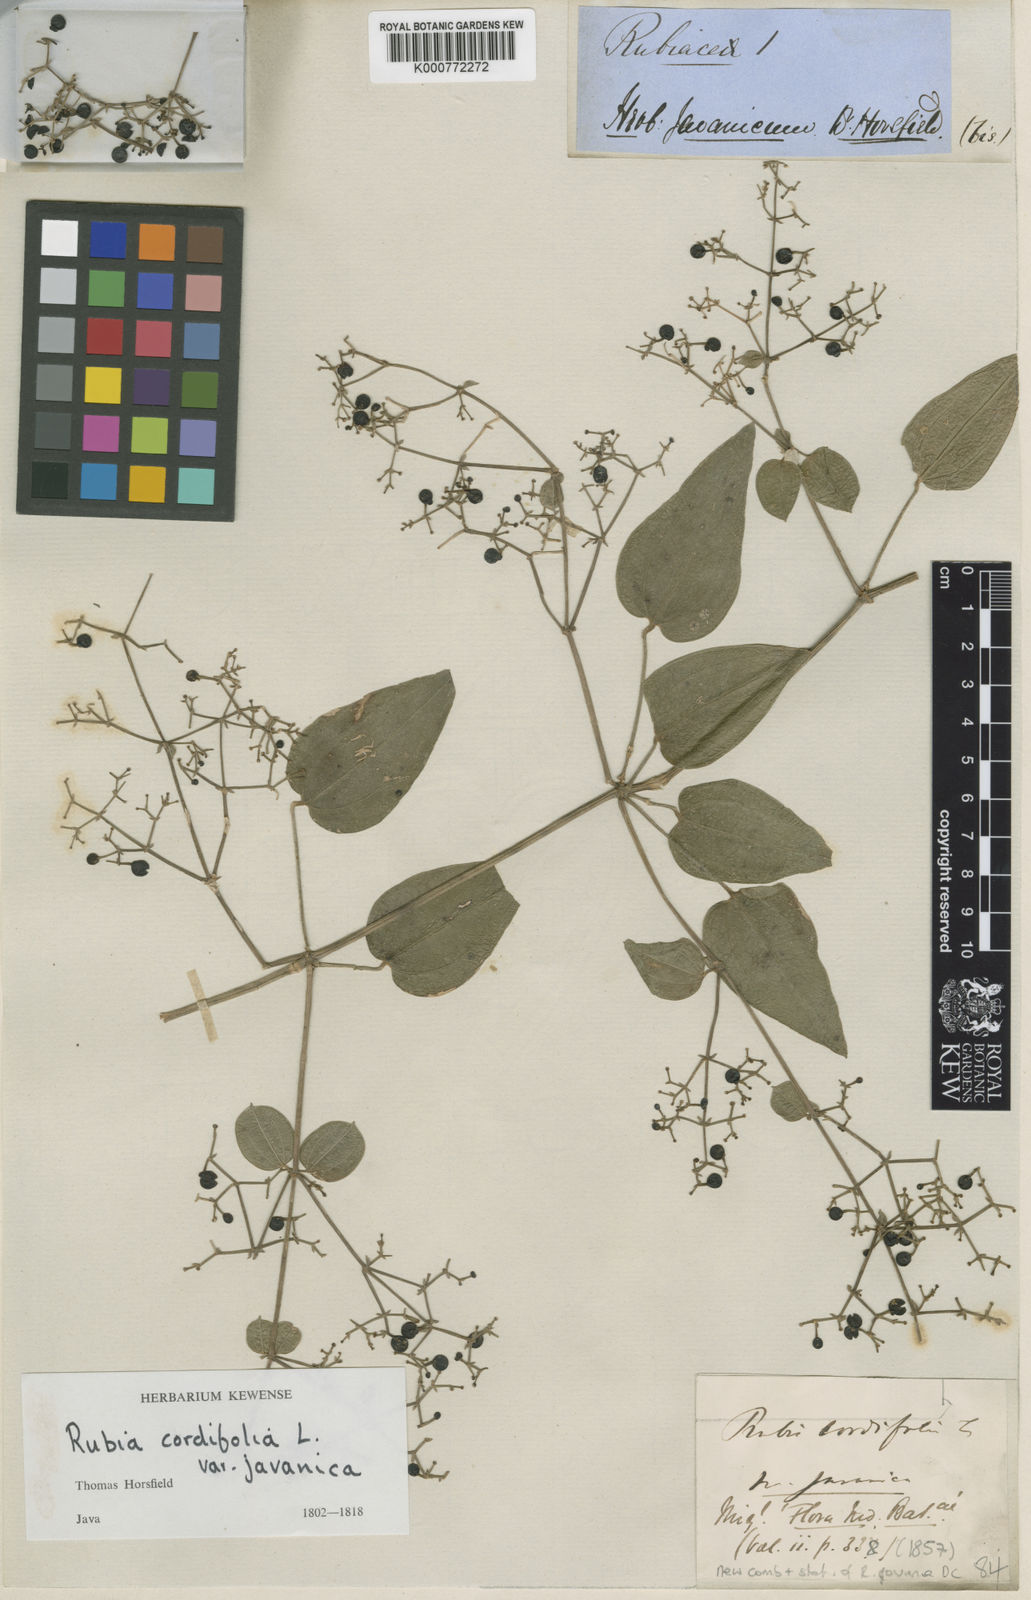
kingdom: Plantae
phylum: Tracheophyta
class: Magnoliopsida
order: Gentianales
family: Rubiaceae
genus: Rubia
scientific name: Rubia cordifolia
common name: Indian madder
